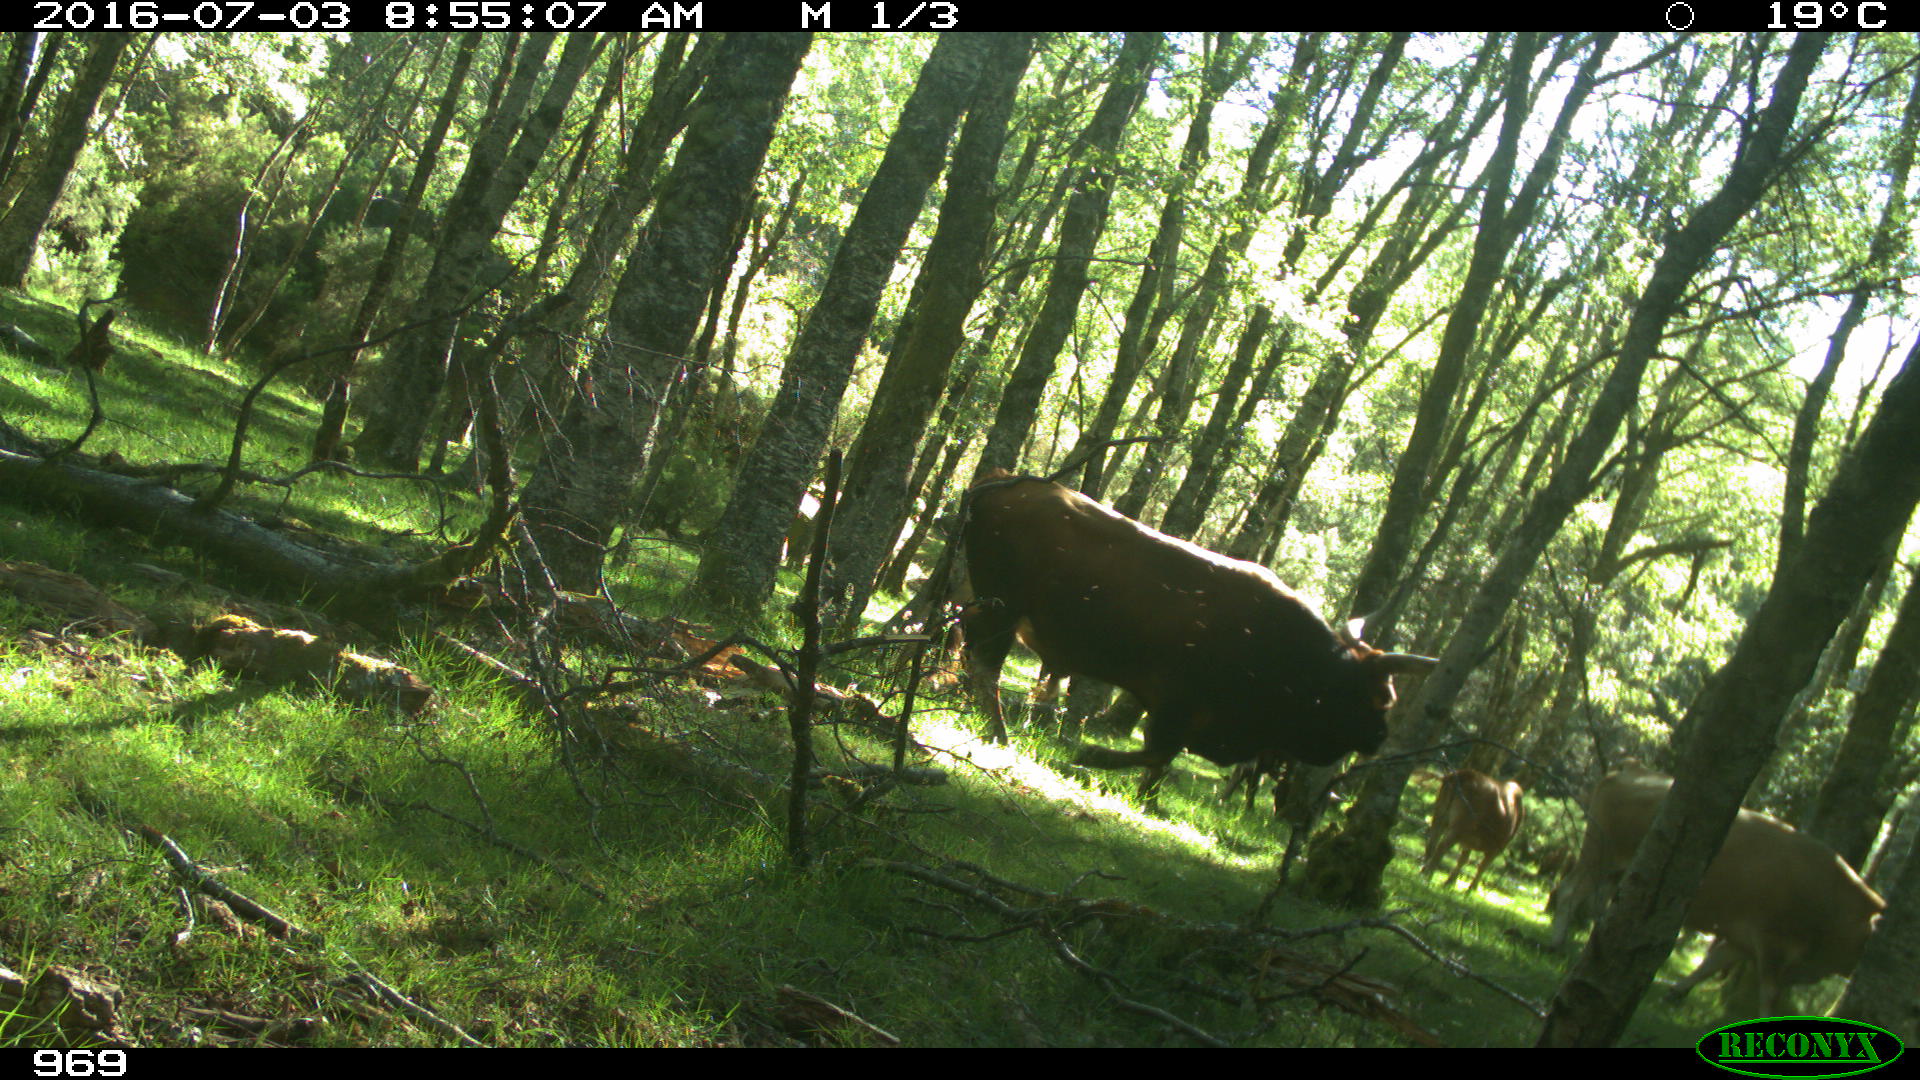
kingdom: Animalia
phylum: Chordata
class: Mammalia
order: Artiodactyla
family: Bovidae
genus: Bos
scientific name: Bos taurus
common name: Domesticated cattle
